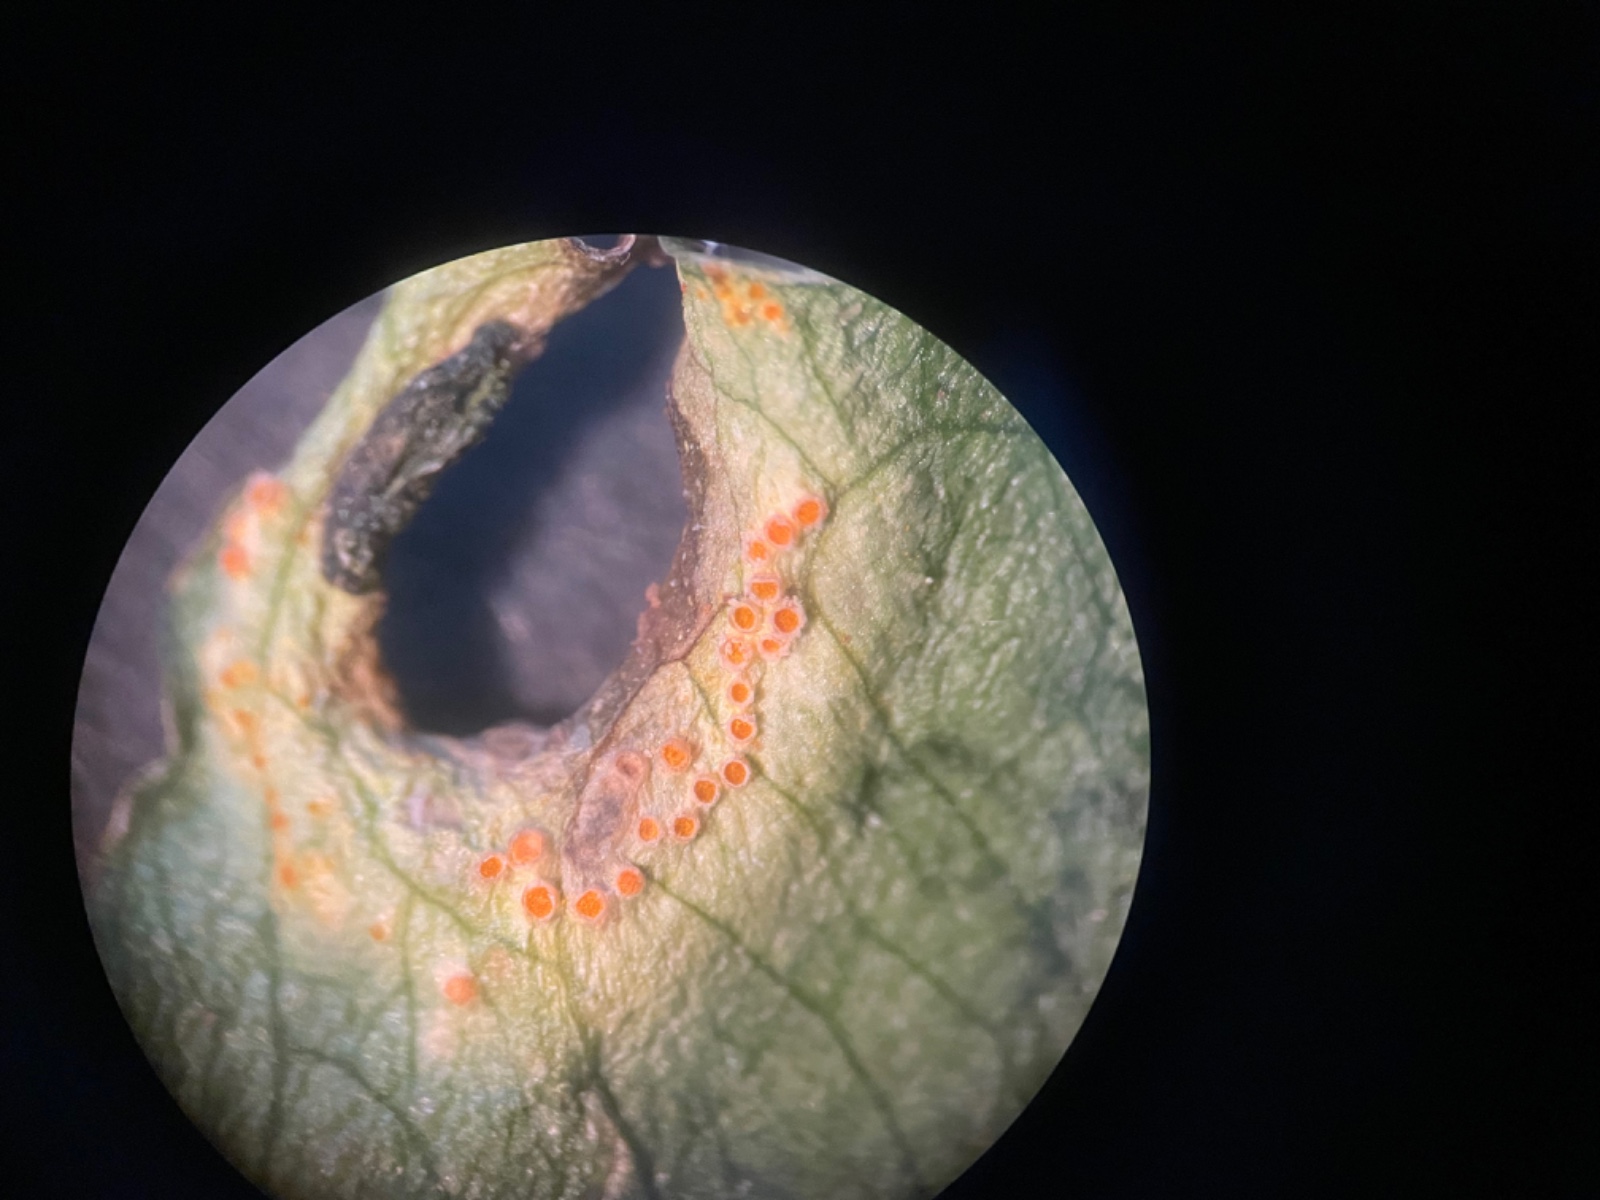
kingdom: Fungi
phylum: Basidiomycota
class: Pucciniomycetes
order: Pucciniales
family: Pucciniaceae
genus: Puccinia
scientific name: Puccinia sessilis
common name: Arum rust
